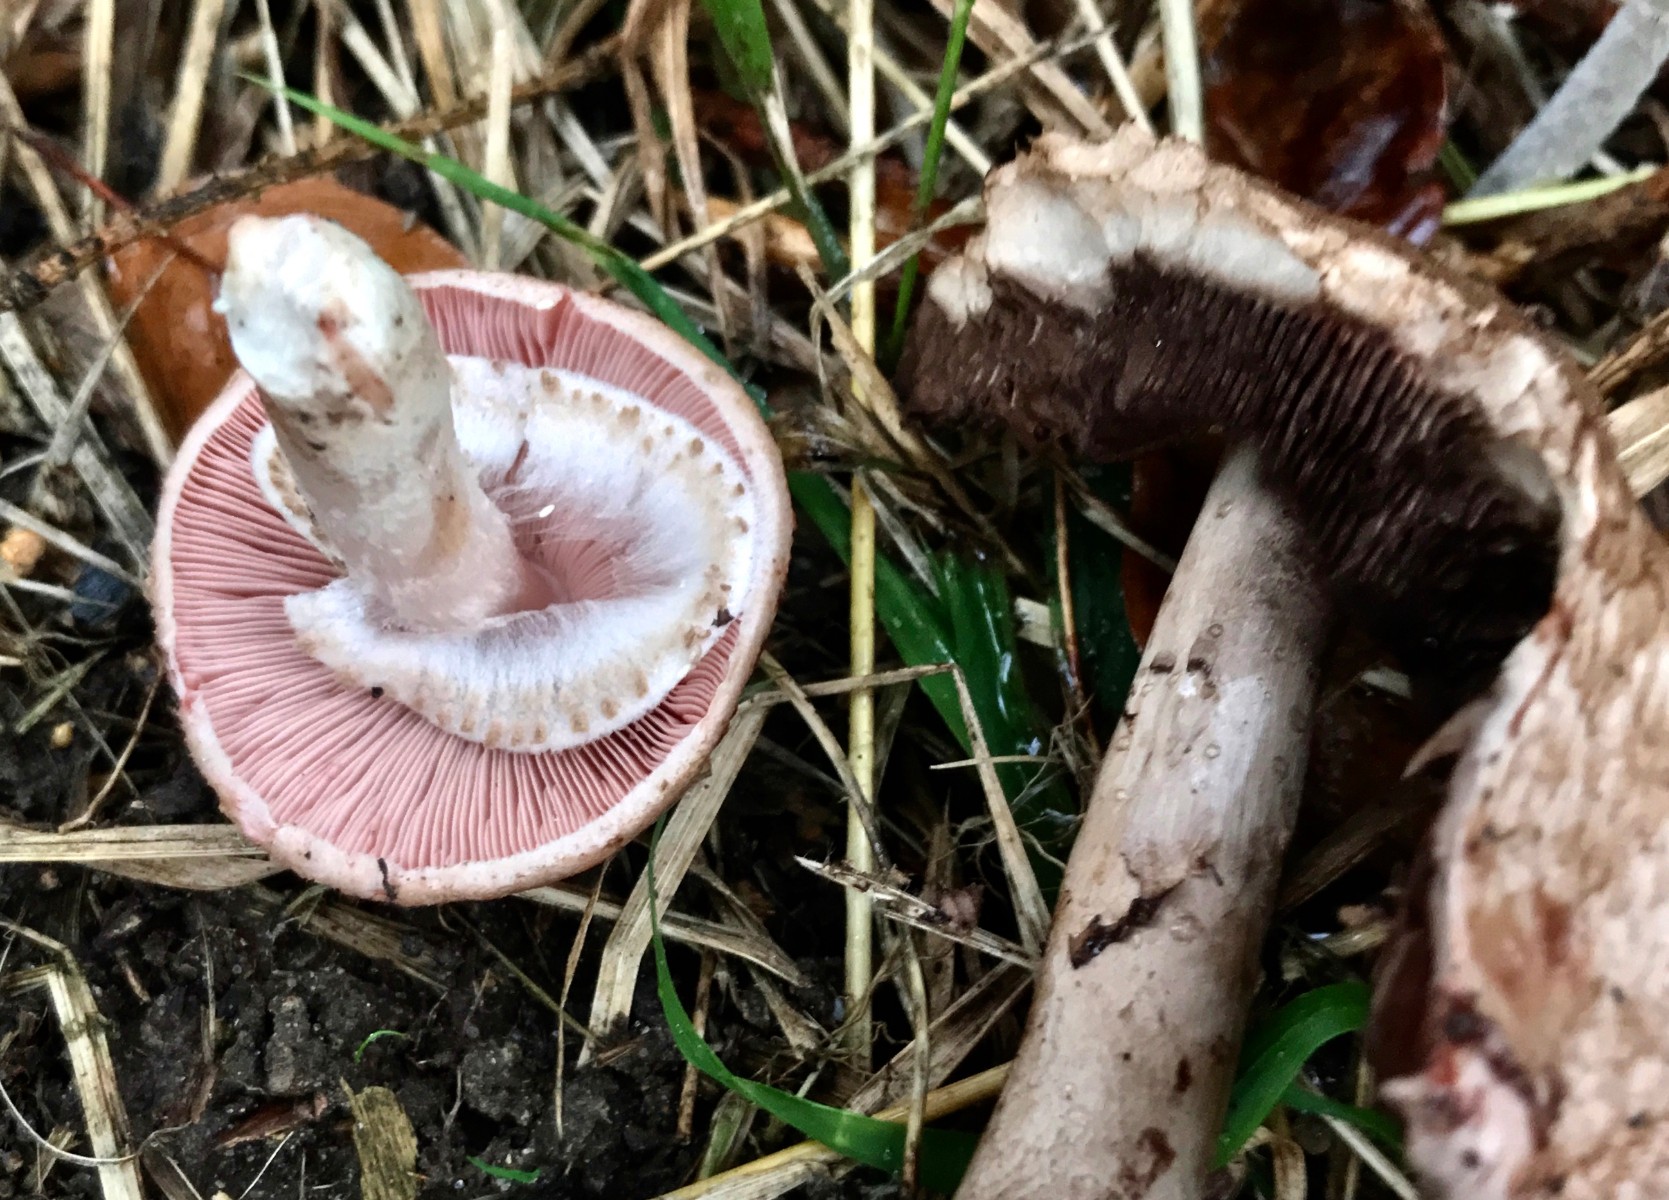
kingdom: Fungi
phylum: Basidiomycota
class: Agaricomycetes
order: Agaricales
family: Agaricaceae
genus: Agaricus
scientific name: Agaricus impudicus
